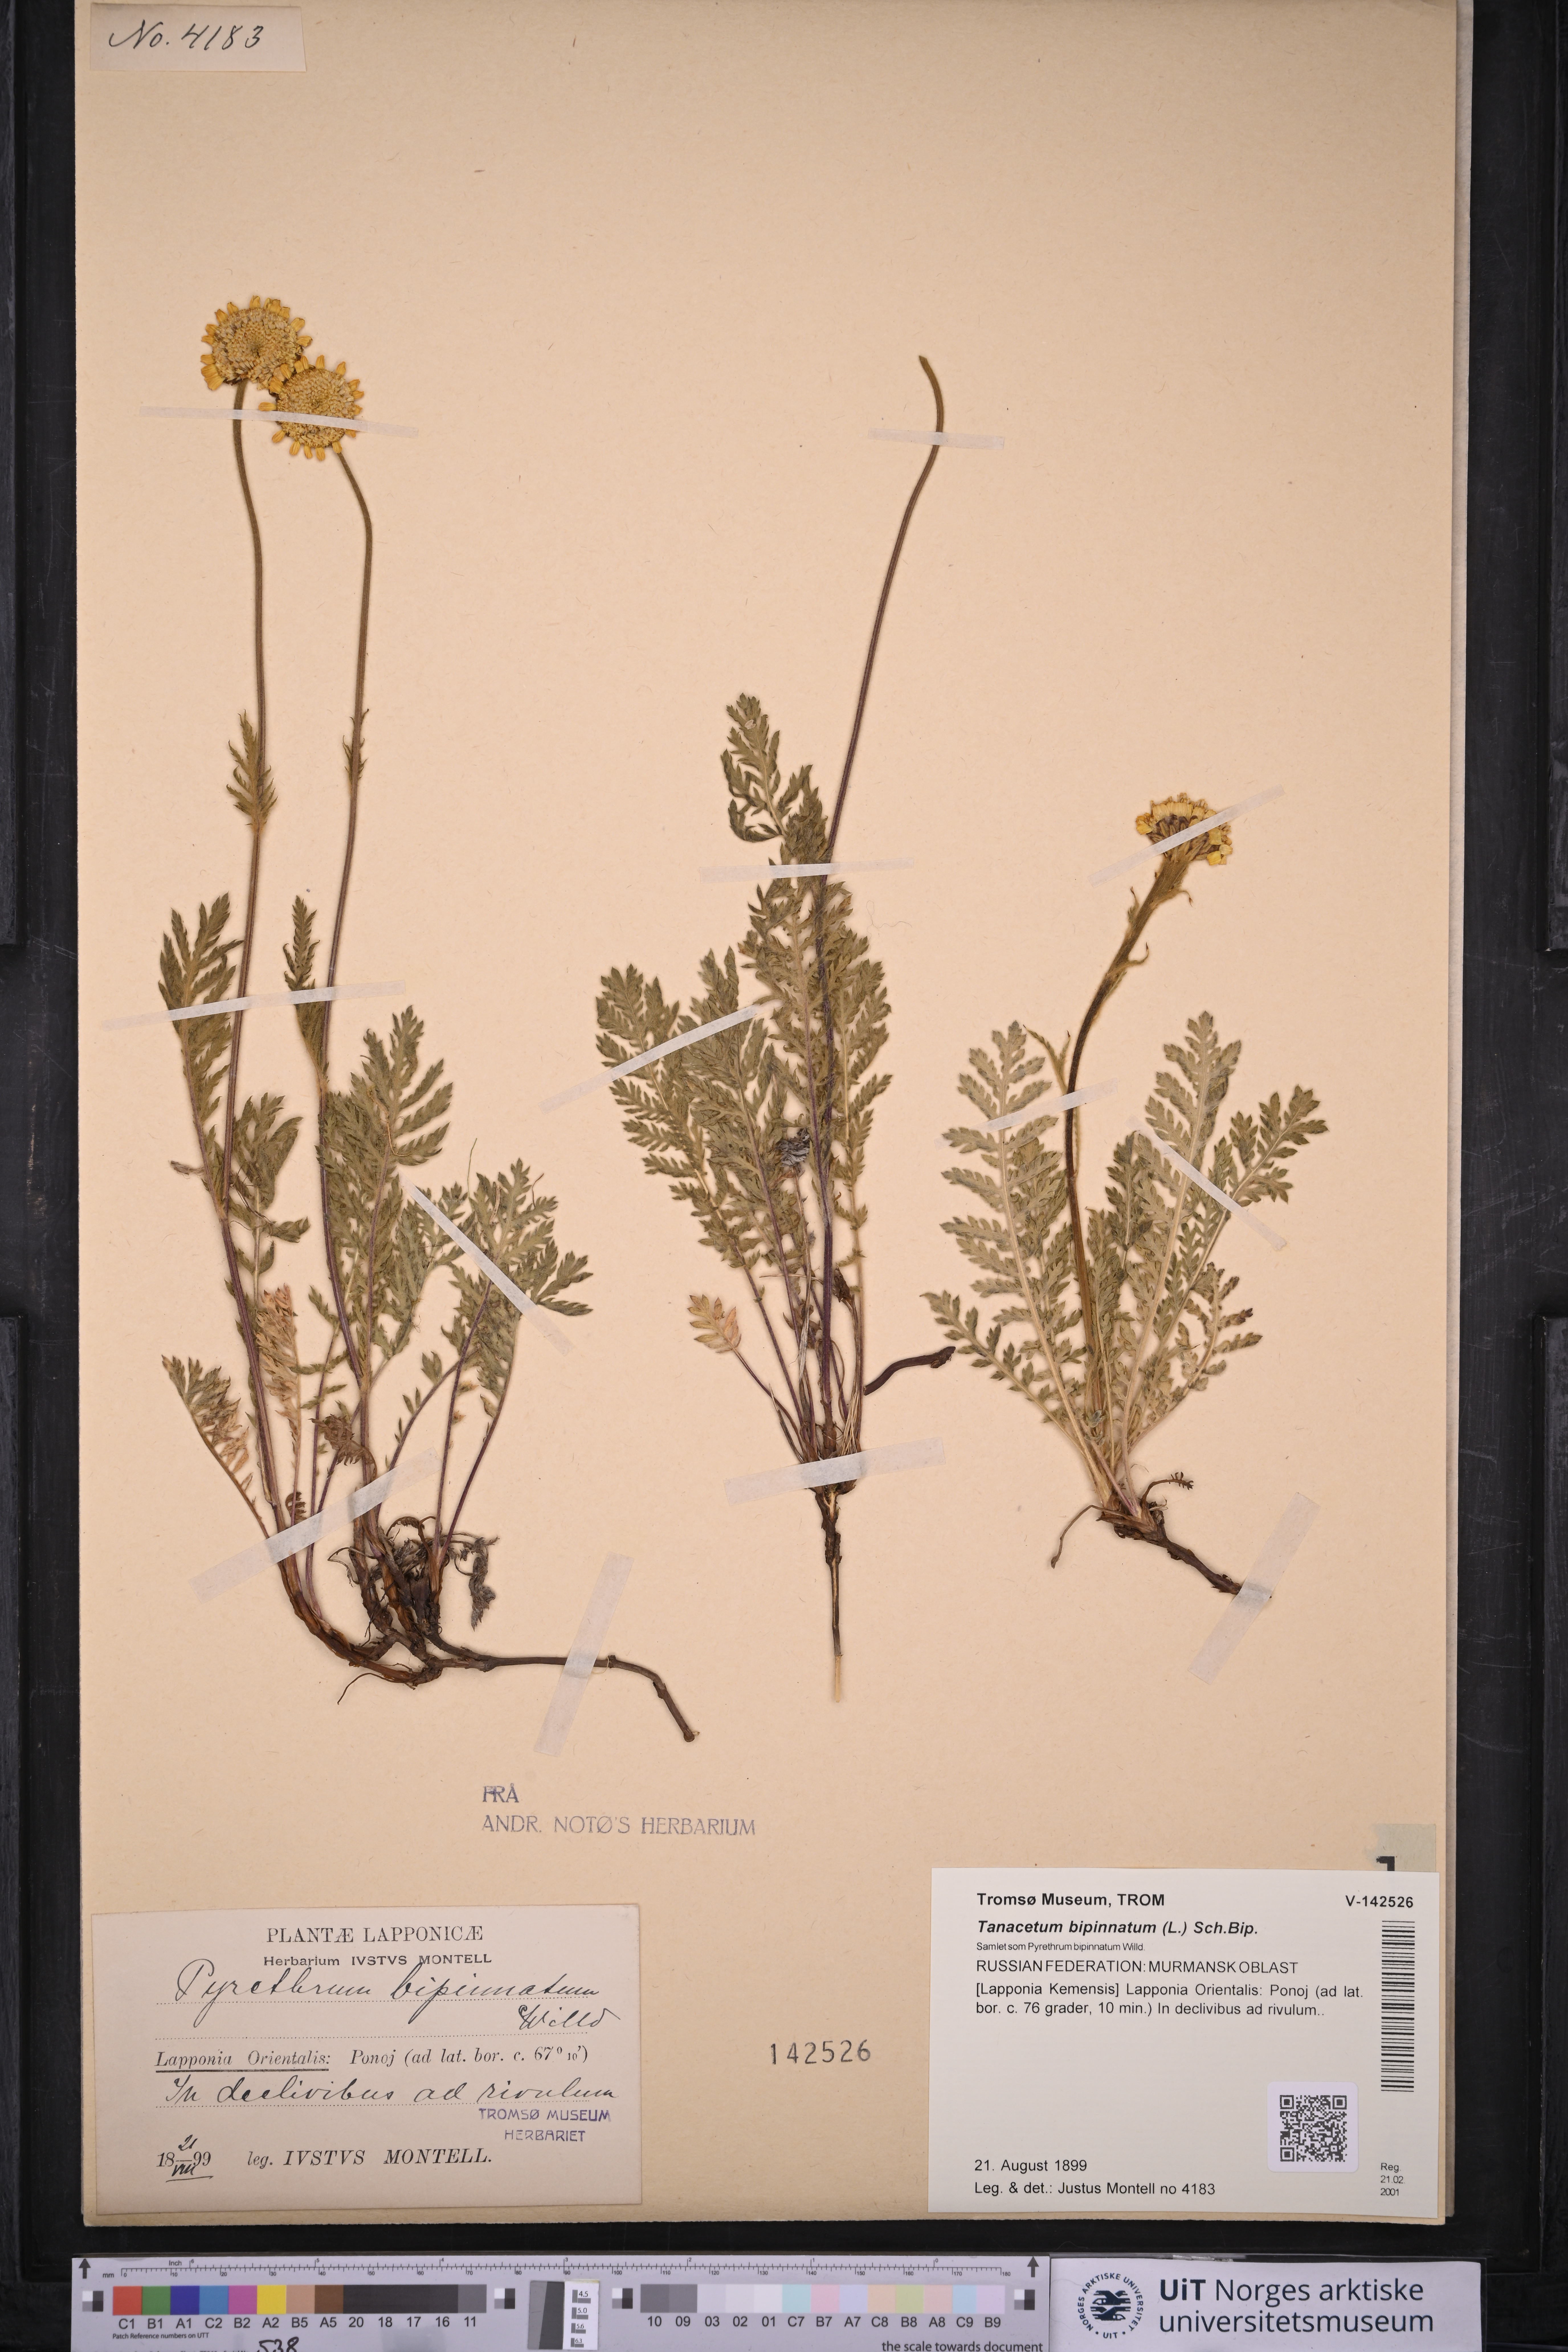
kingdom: Plantae
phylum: Tracheophyta
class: Magnoliopsida
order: Asterales
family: Asteraceae
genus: Tanacetum
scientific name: Tanacetum bipinnatum
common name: Dwarf tansy
